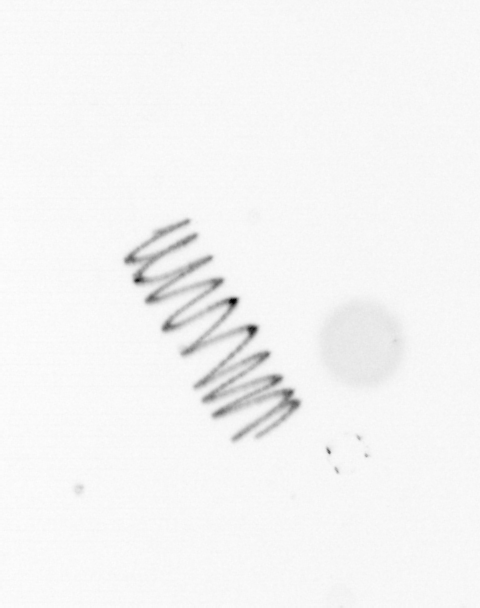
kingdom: Chromista
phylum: Ochrophyta
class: Bacillariophyceae
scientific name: Bacillariophyceae
